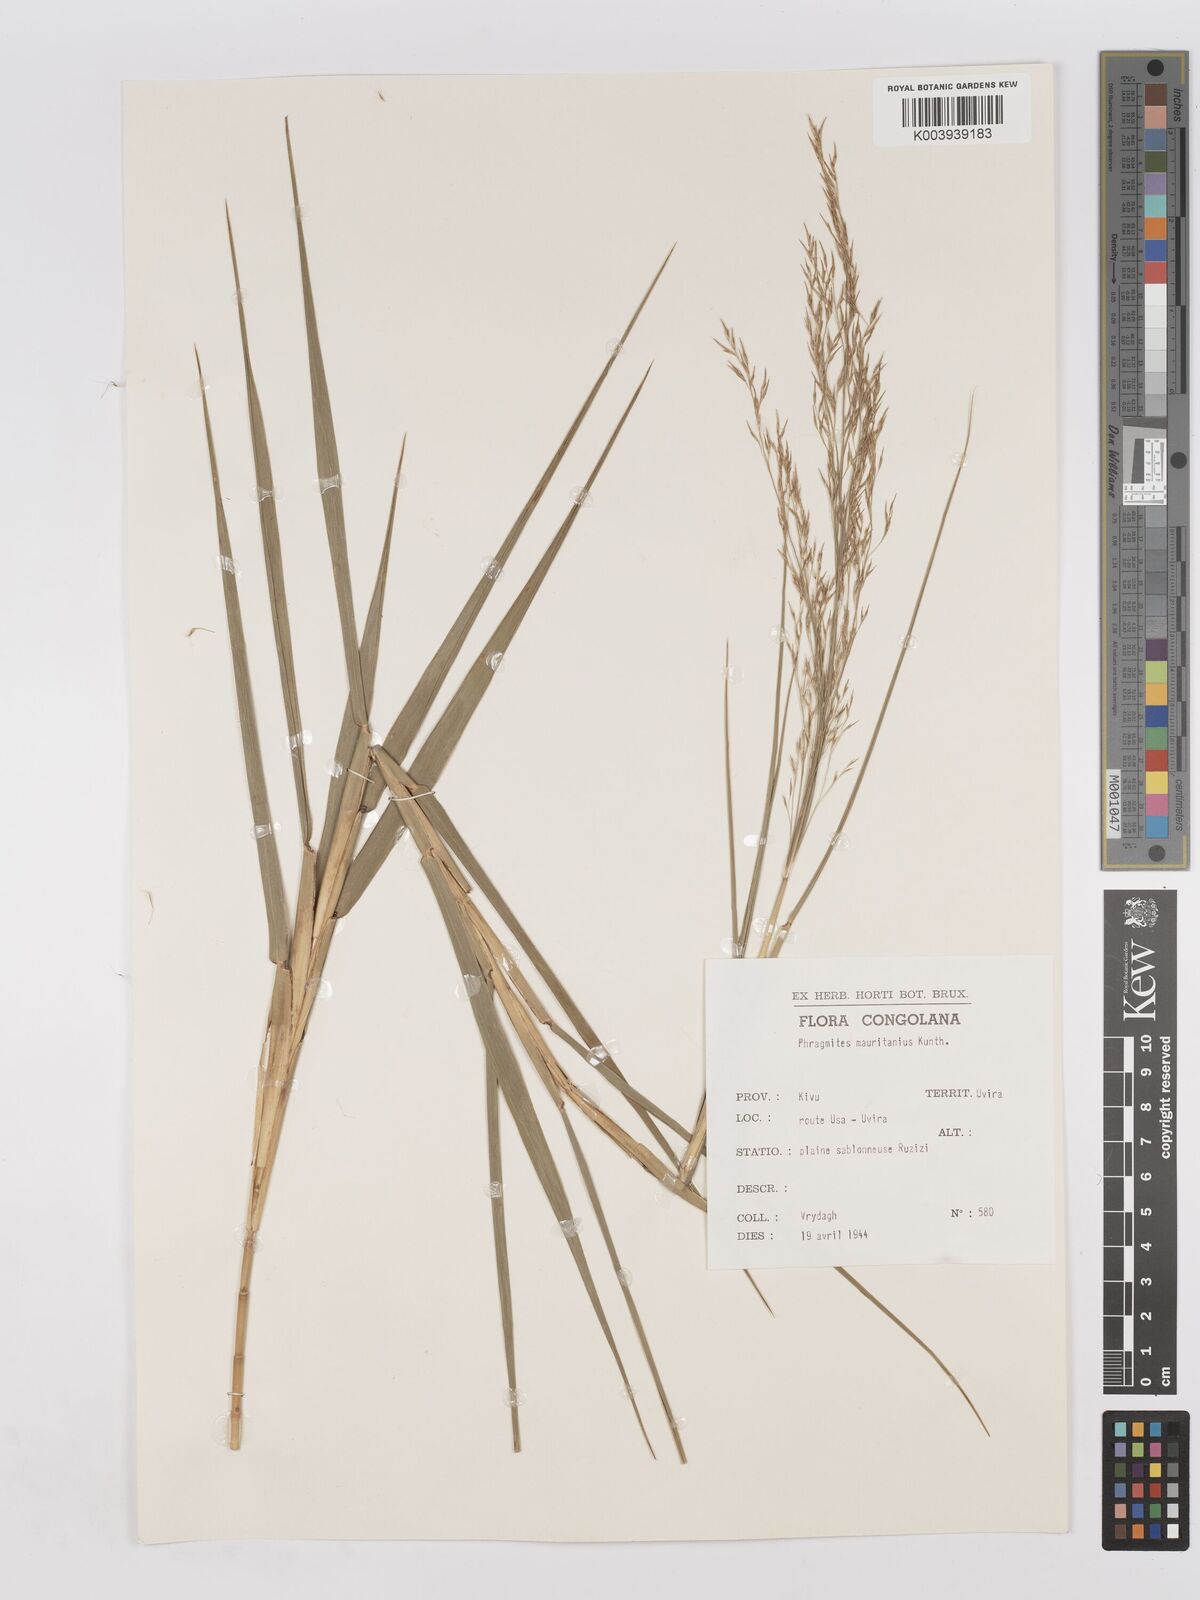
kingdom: Plantae
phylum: Tracheophyta
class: Liliopsida
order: Poales
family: Poaceae
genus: Phragmites
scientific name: Phragmites mauritianus
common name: Reed grass
